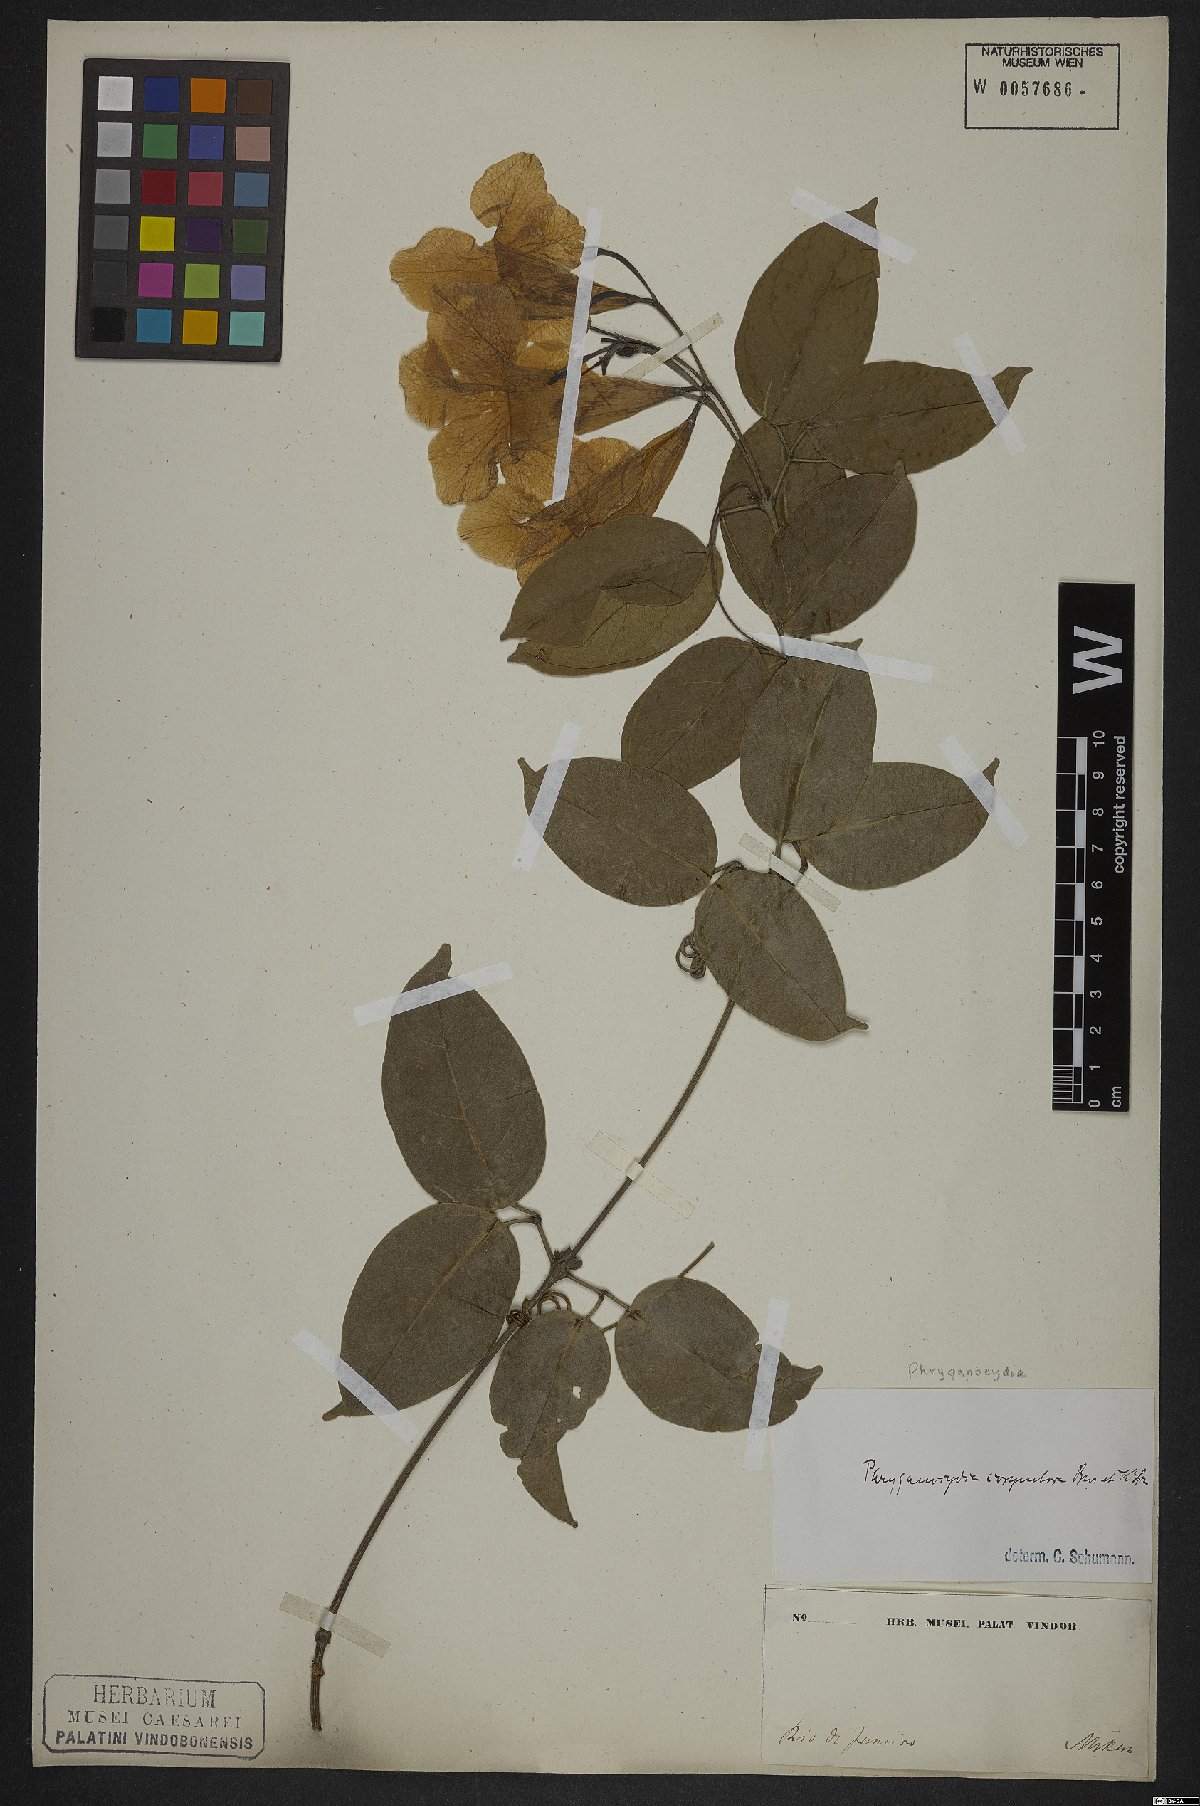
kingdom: Plantae
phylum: Tracheophyta
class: Magnoliopsida
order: Lamiales
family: Bignoniaceae
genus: Bignonia
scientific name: Bignonia corymbosa
